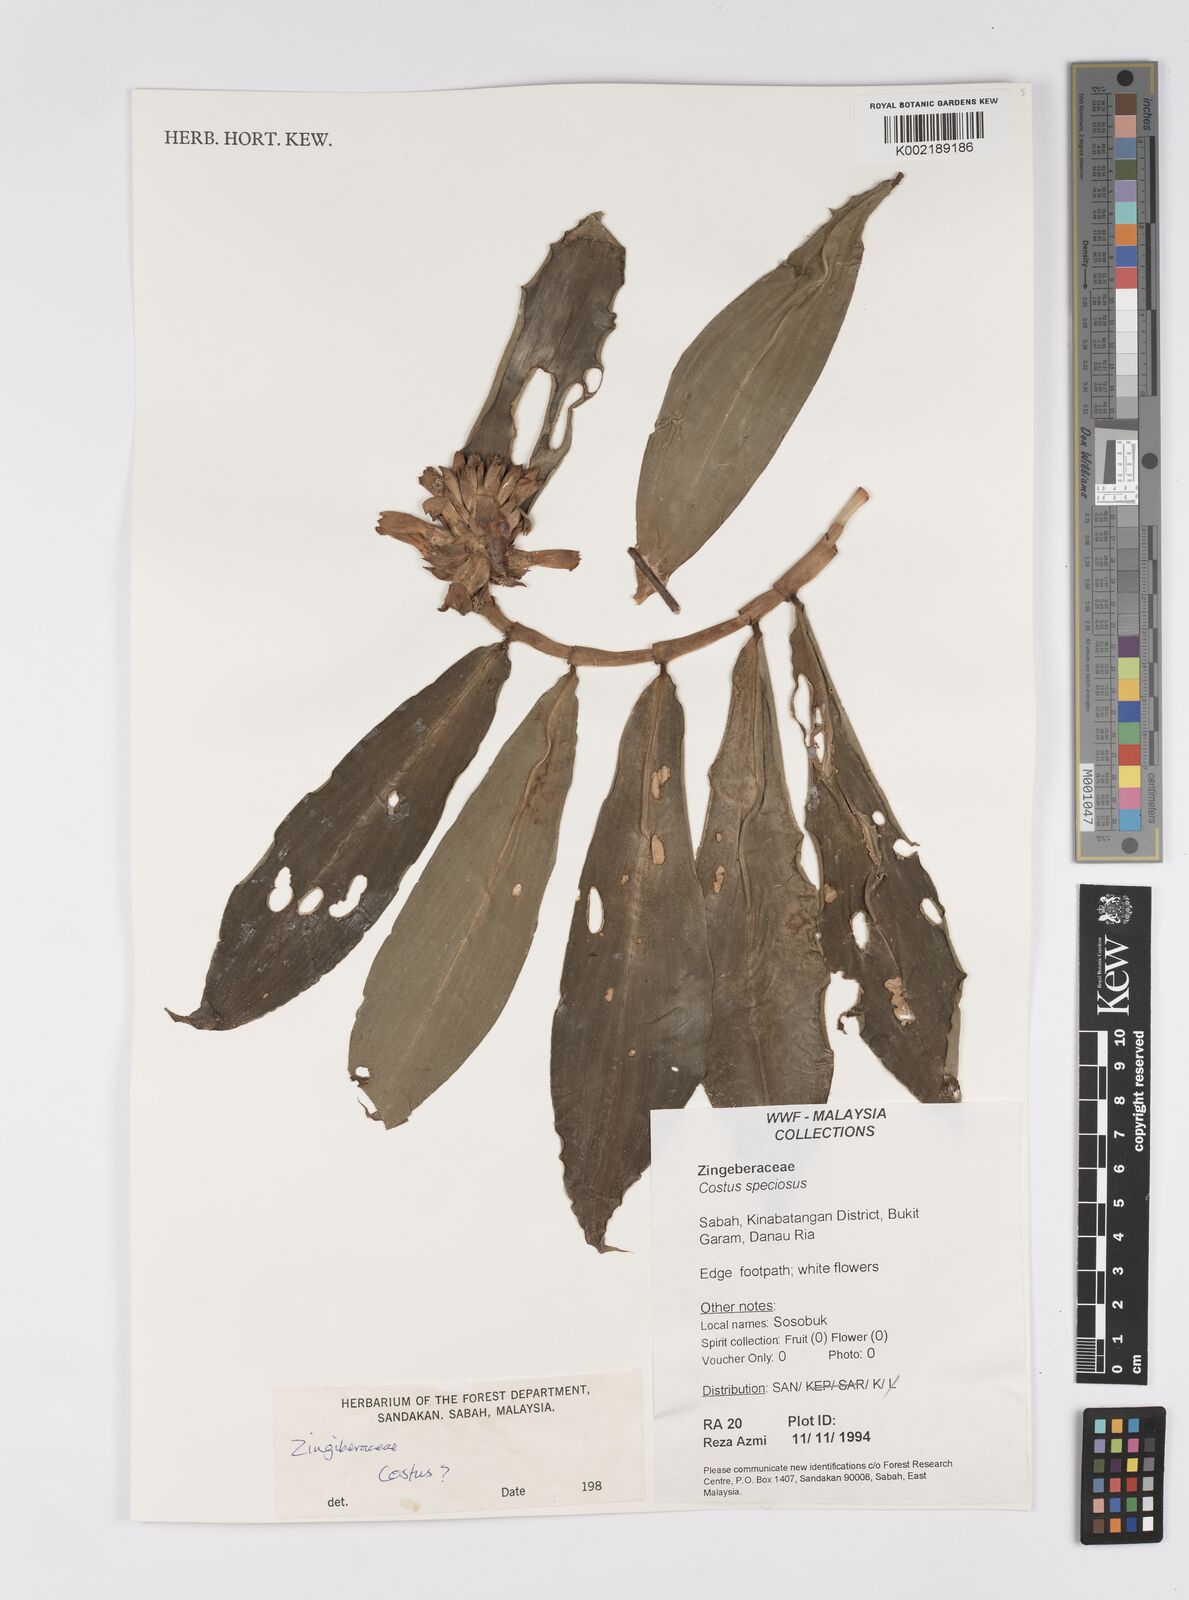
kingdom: Plantae
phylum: Tracheophyta
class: Liliopsida
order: Zingiberales
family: Costaceae
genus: Hellenia
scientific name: Hellenia speciosa
